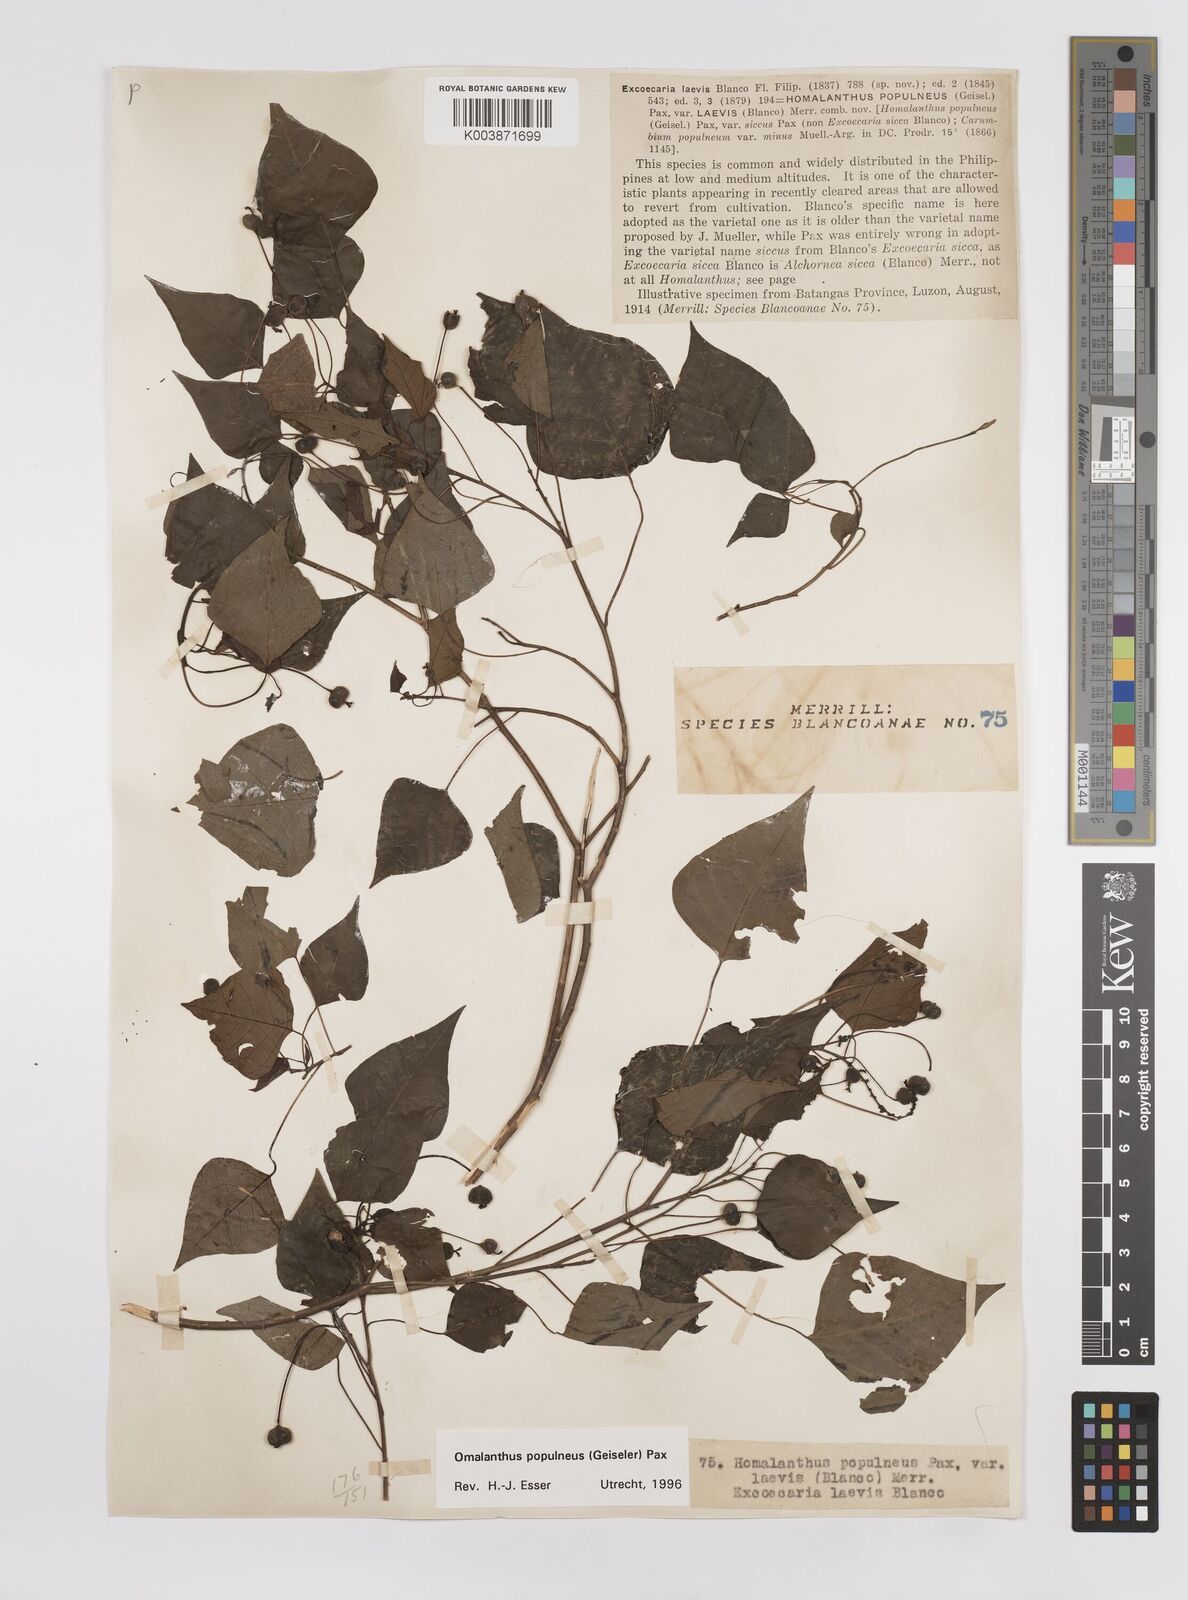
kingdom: Plantae
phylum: Tracheophyta
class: Magnoliopsida
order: Malpighiales
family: Euphorbiaceae
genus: Homalanthus
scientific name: Homalanthus populneus
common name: Spurge
